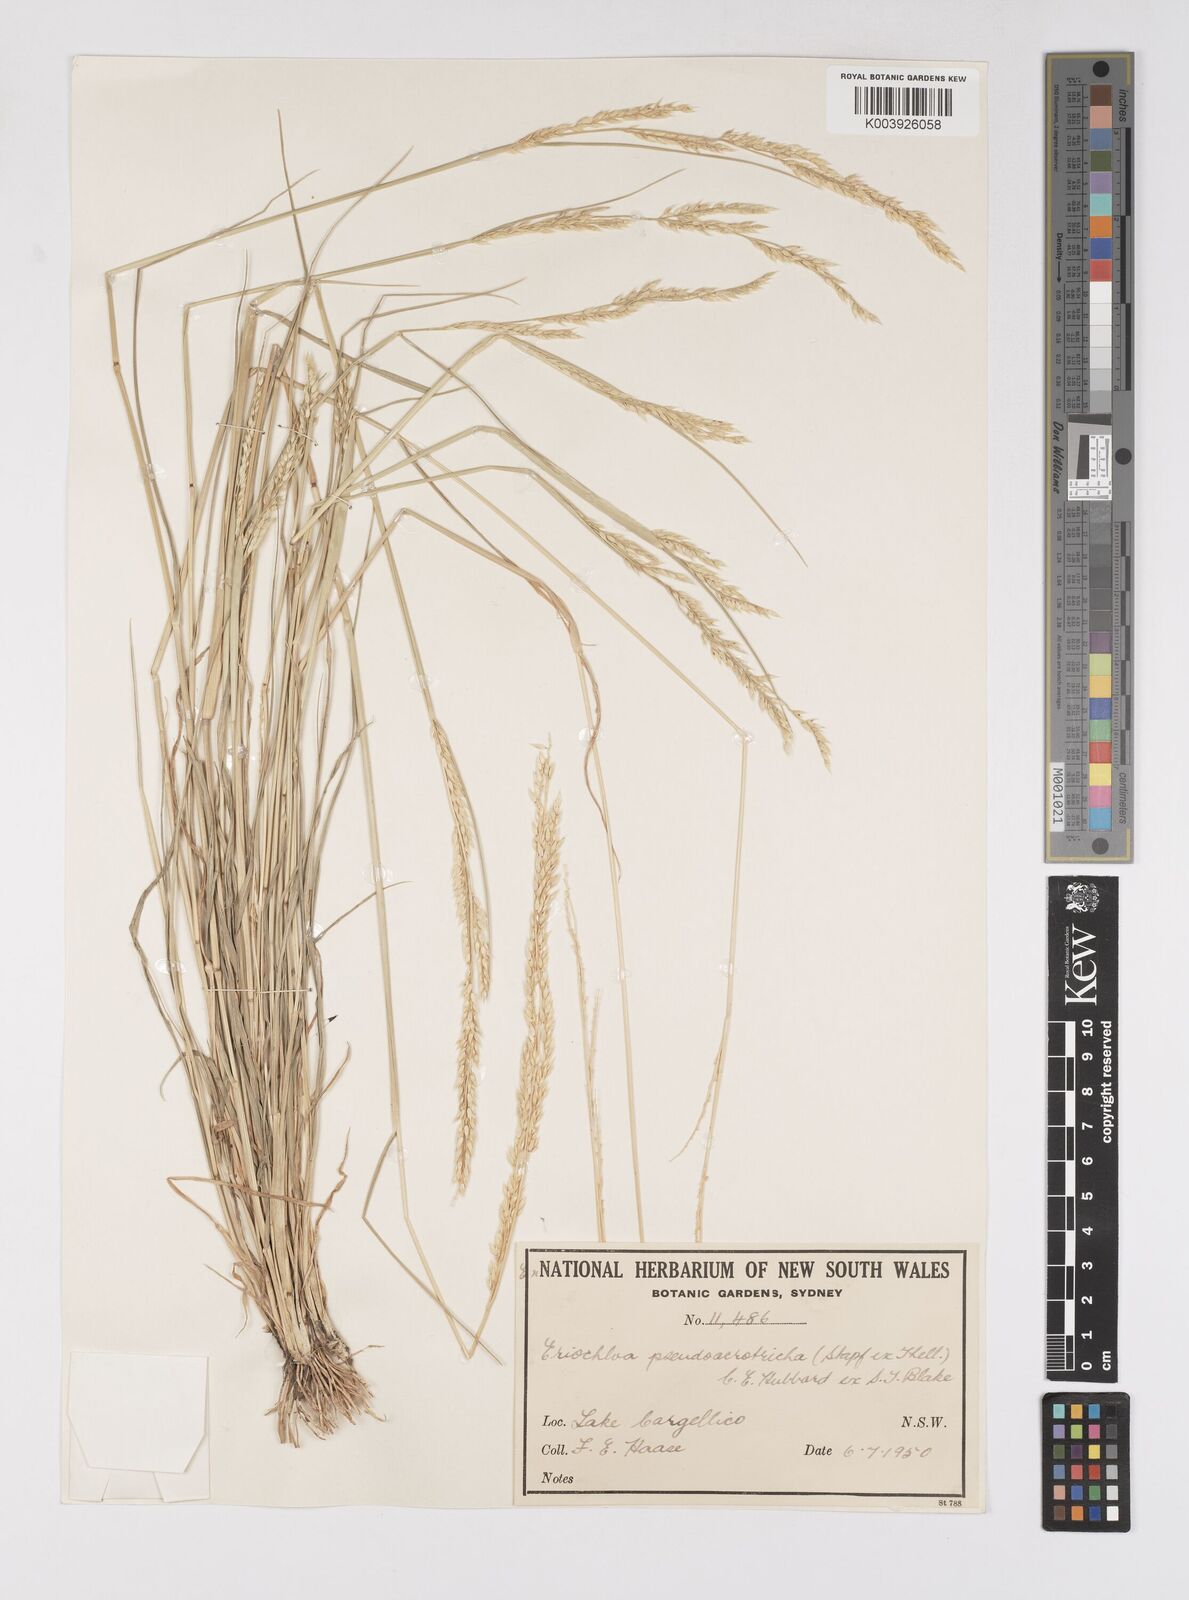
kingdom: Plantae
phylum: Tracheophyta
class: Liliopsida
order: Poales
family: Poaceae
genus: Eriochloa
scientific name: Eriochloa pseudoacrotricha
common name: Perennial cup-grass
